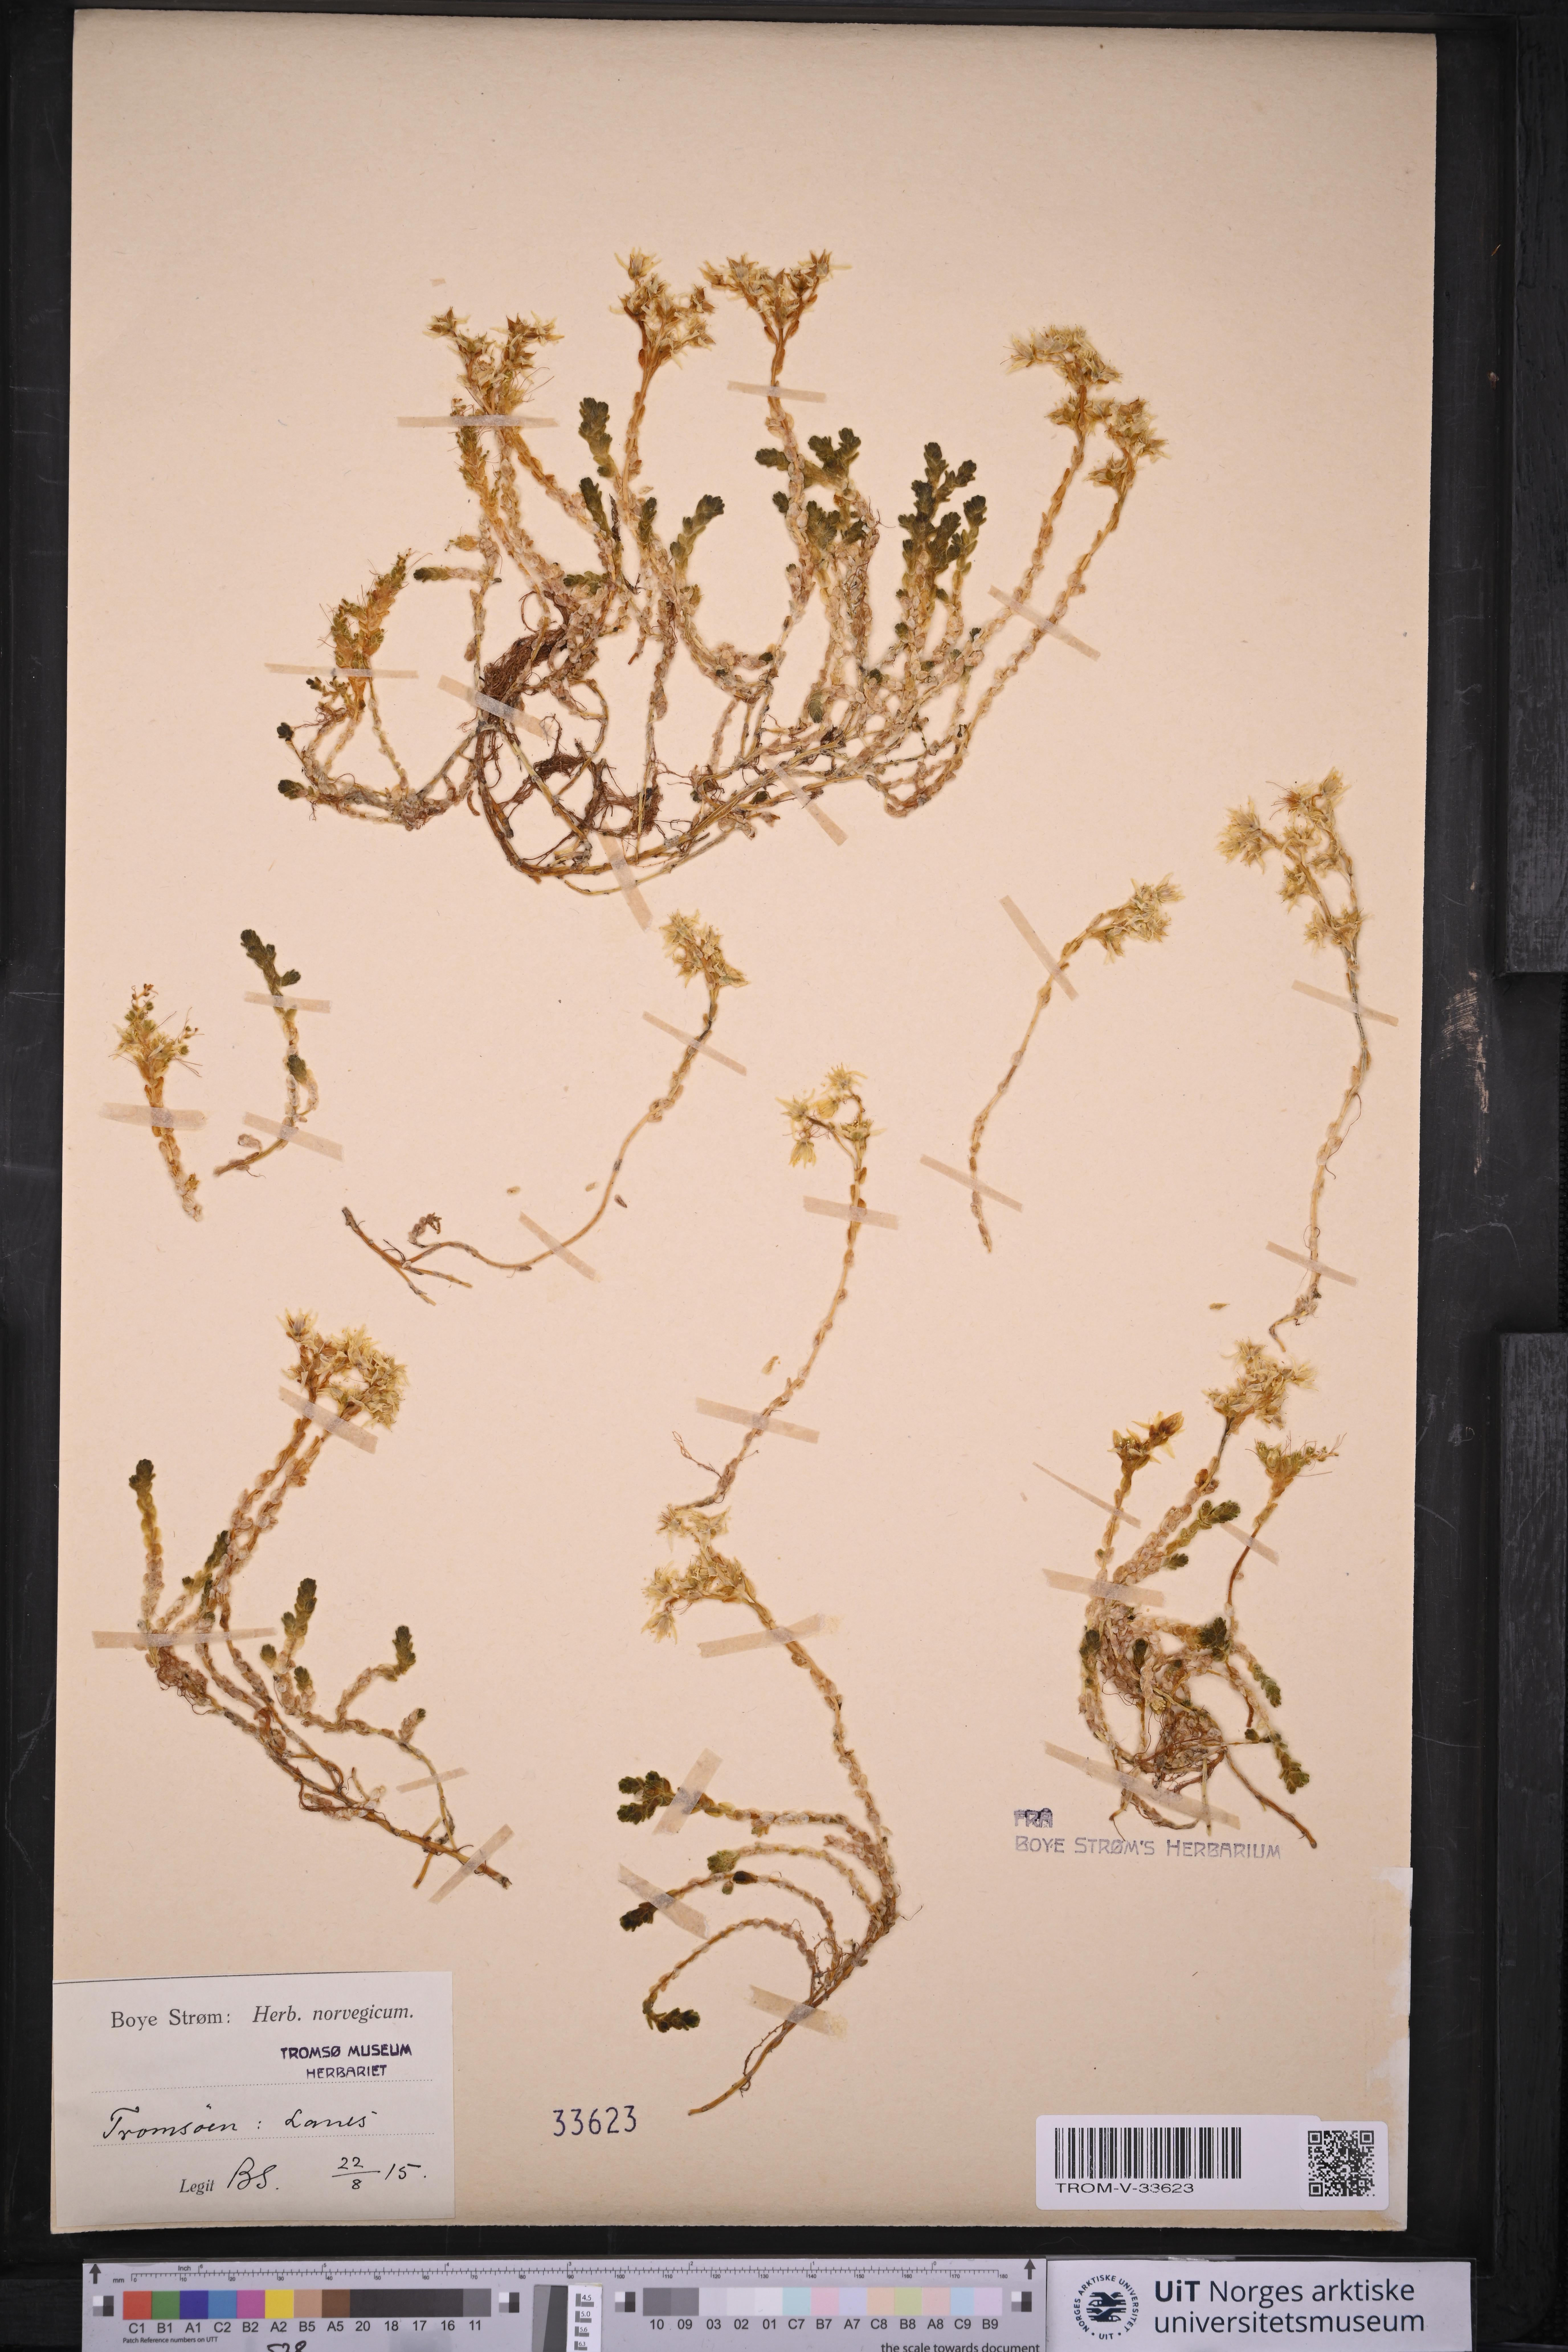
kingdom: Plantae
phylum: Tracheophyta
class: Magnoliopsida
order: Saxifragales
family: Crassulaceae
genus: Sedum
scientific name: Sedum acre
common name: Biting stonecrop
